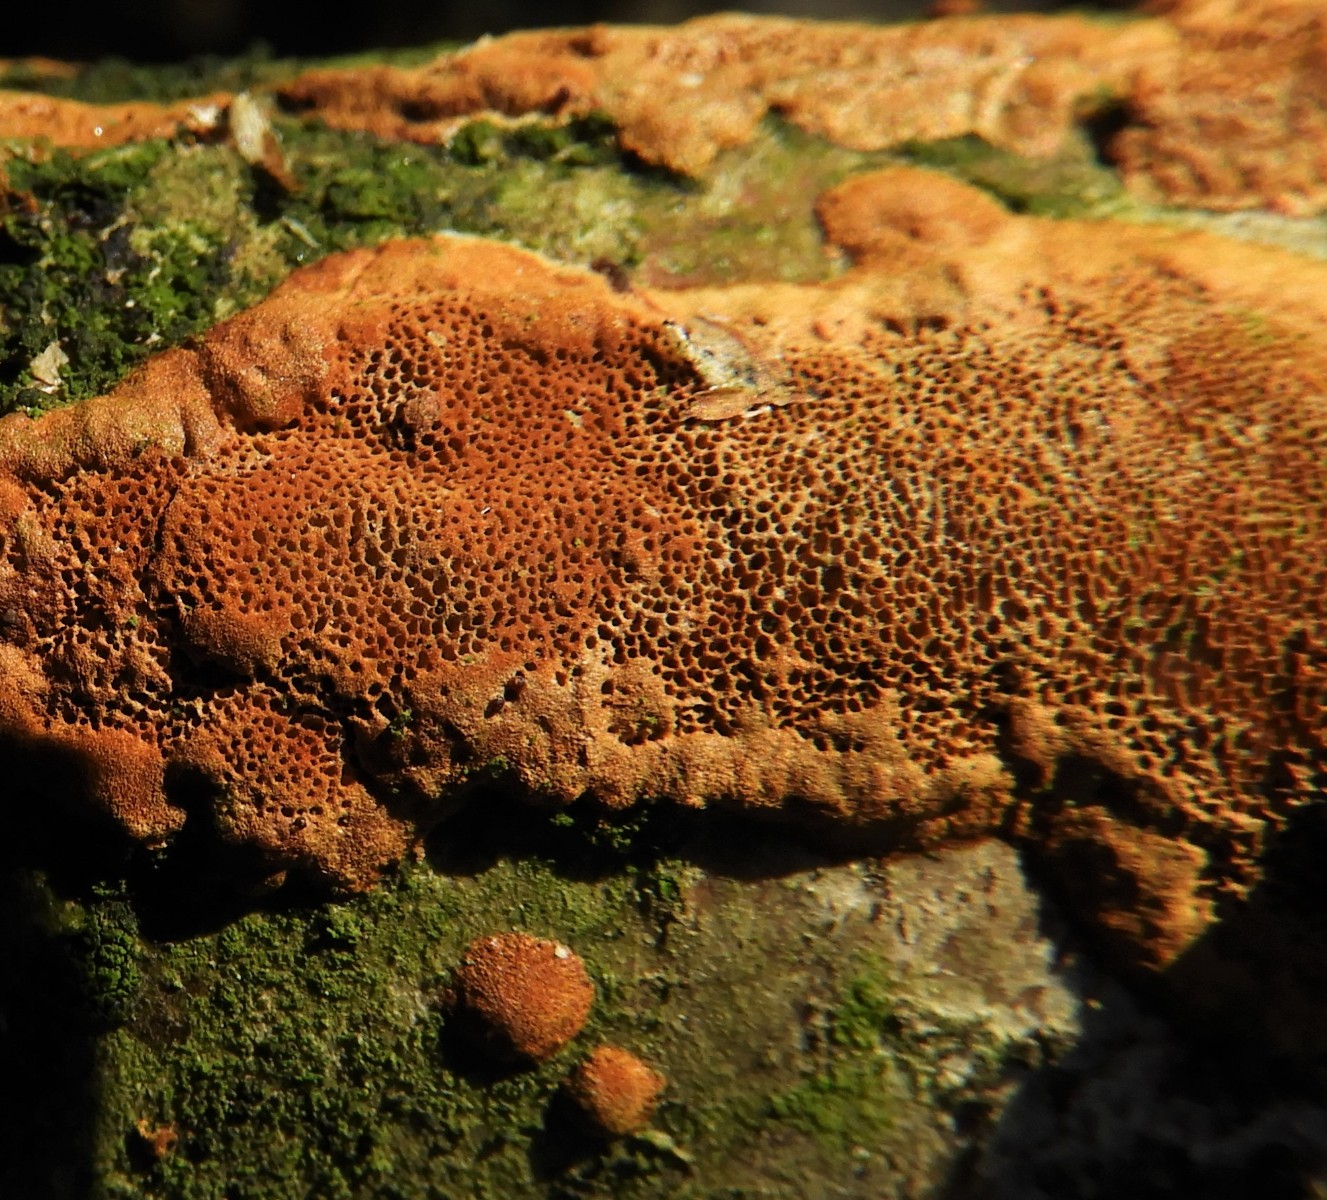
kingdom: Fungi
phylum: Basidiomycota
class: Agaricomycetes
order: Hymenochaetales
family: Hymenochaetaceae
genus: Fuscoporia
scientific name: Fuscoporia ferrea
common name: skorpe-ildporesvamp
